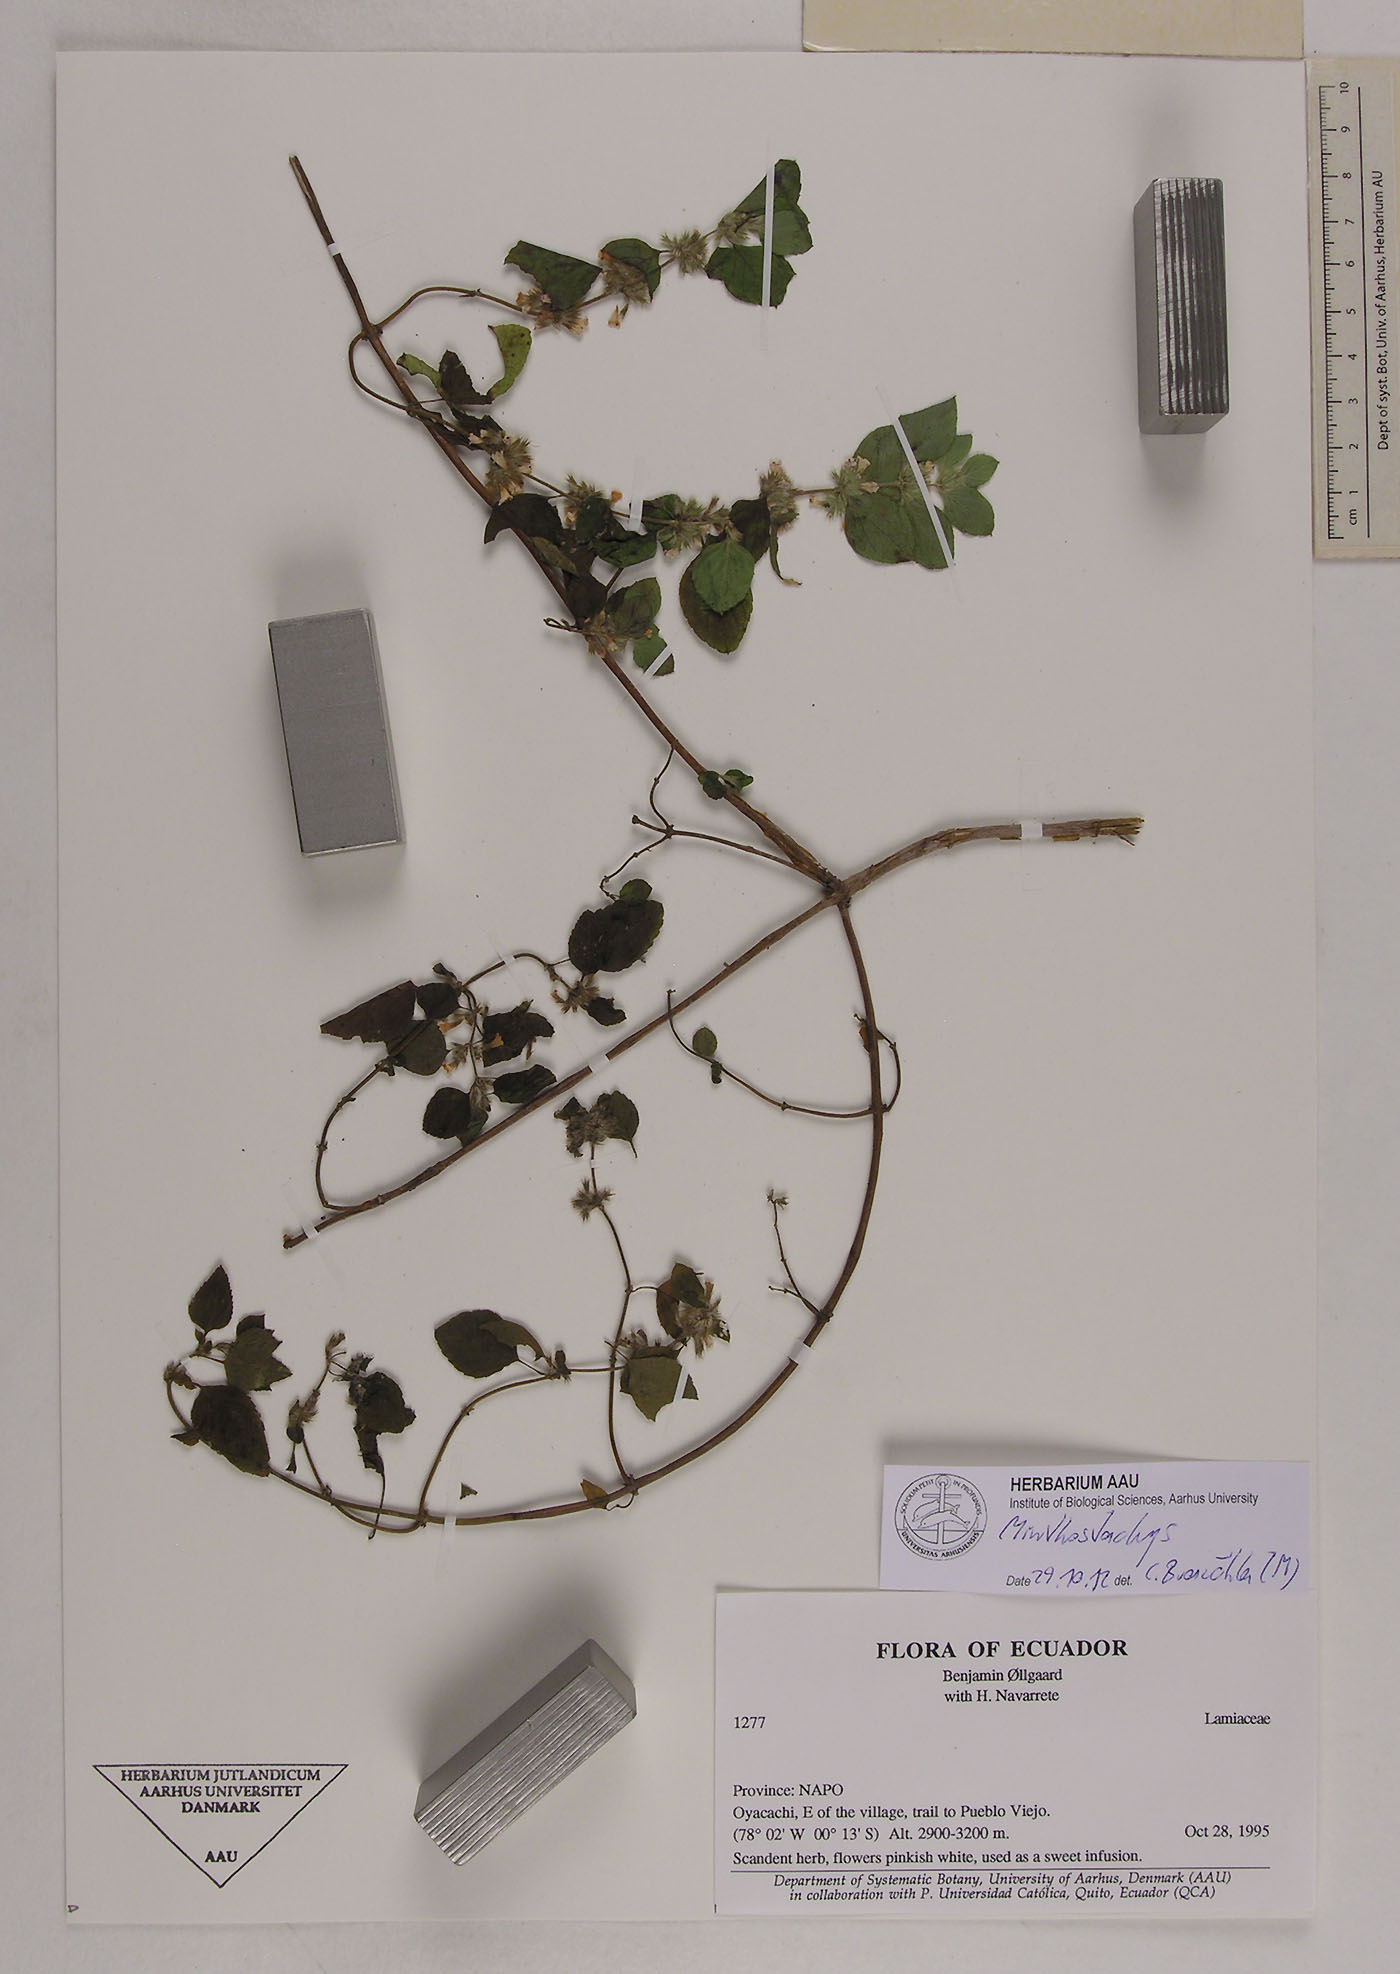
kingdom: Plantae
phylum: Tracheophyta
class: Magnoliopsida
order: Lamiales
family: Lamiaceae
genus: Minthostachys
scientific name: Minthostachys
